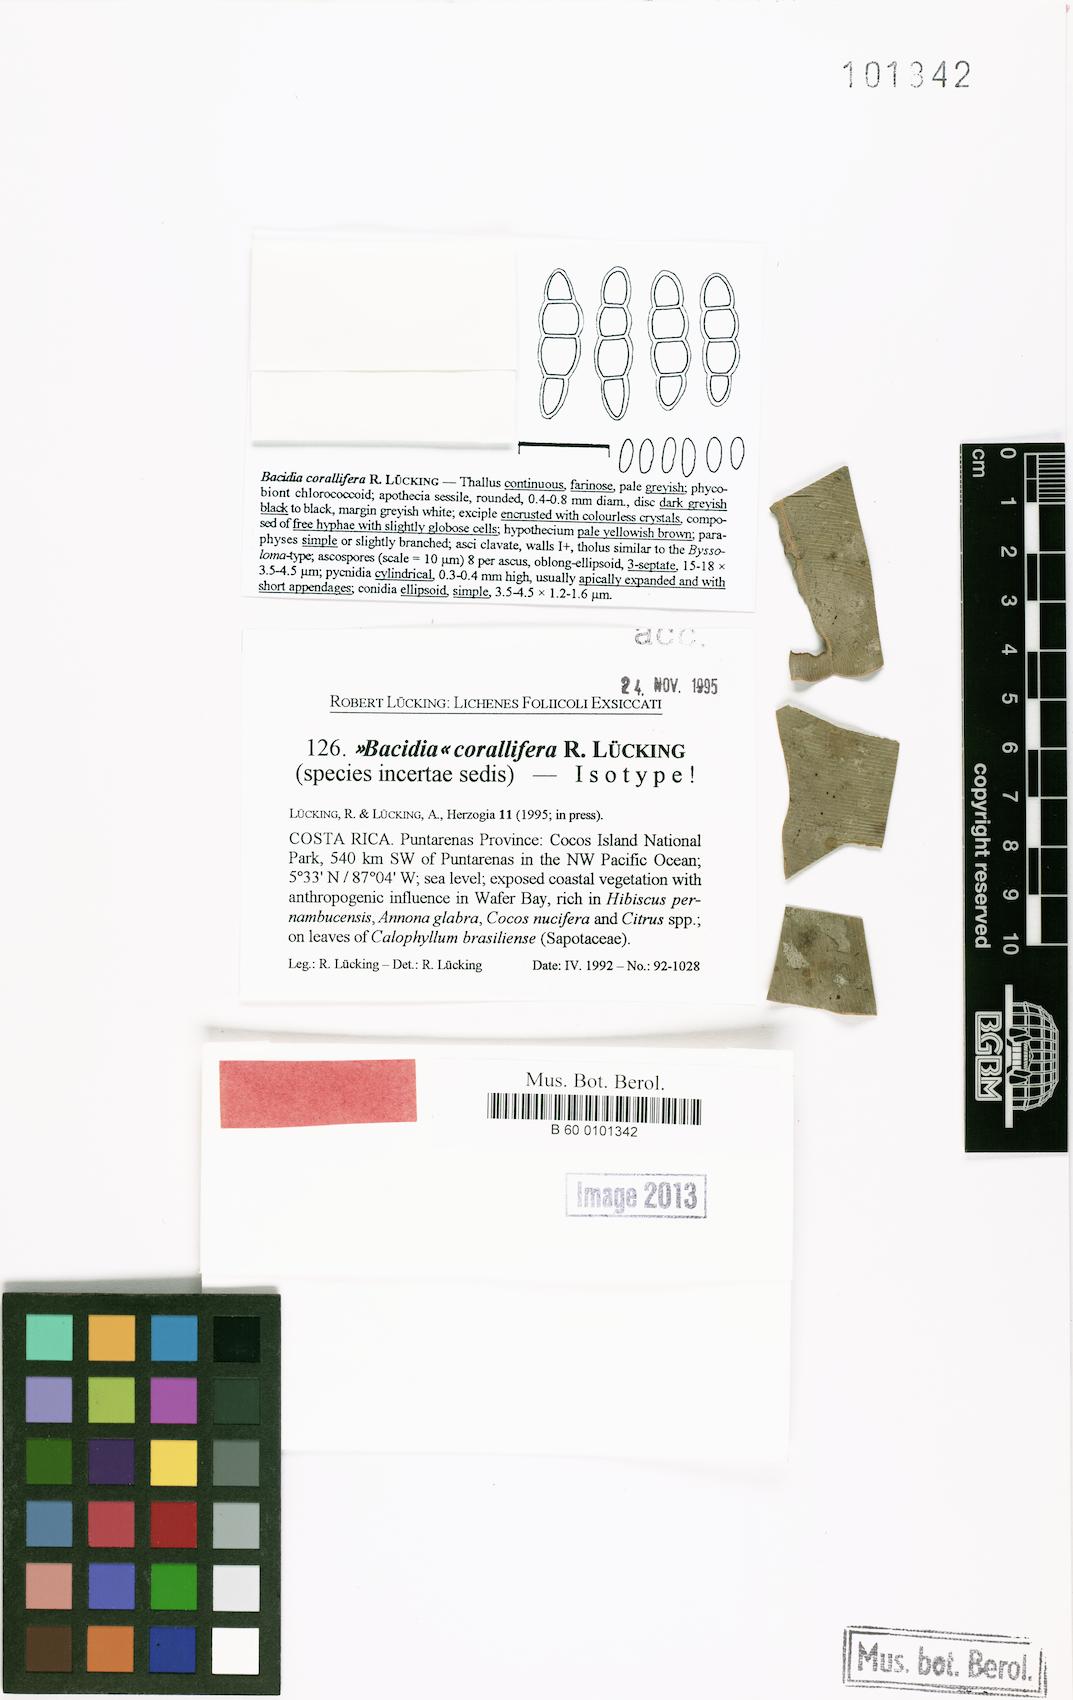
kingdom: Fungi
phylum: Ascomycota
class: Lecanoromycetes
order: Lecanorales
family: Byssolomataceae
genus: Eugeniella
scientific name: Eugeniella corallifera
